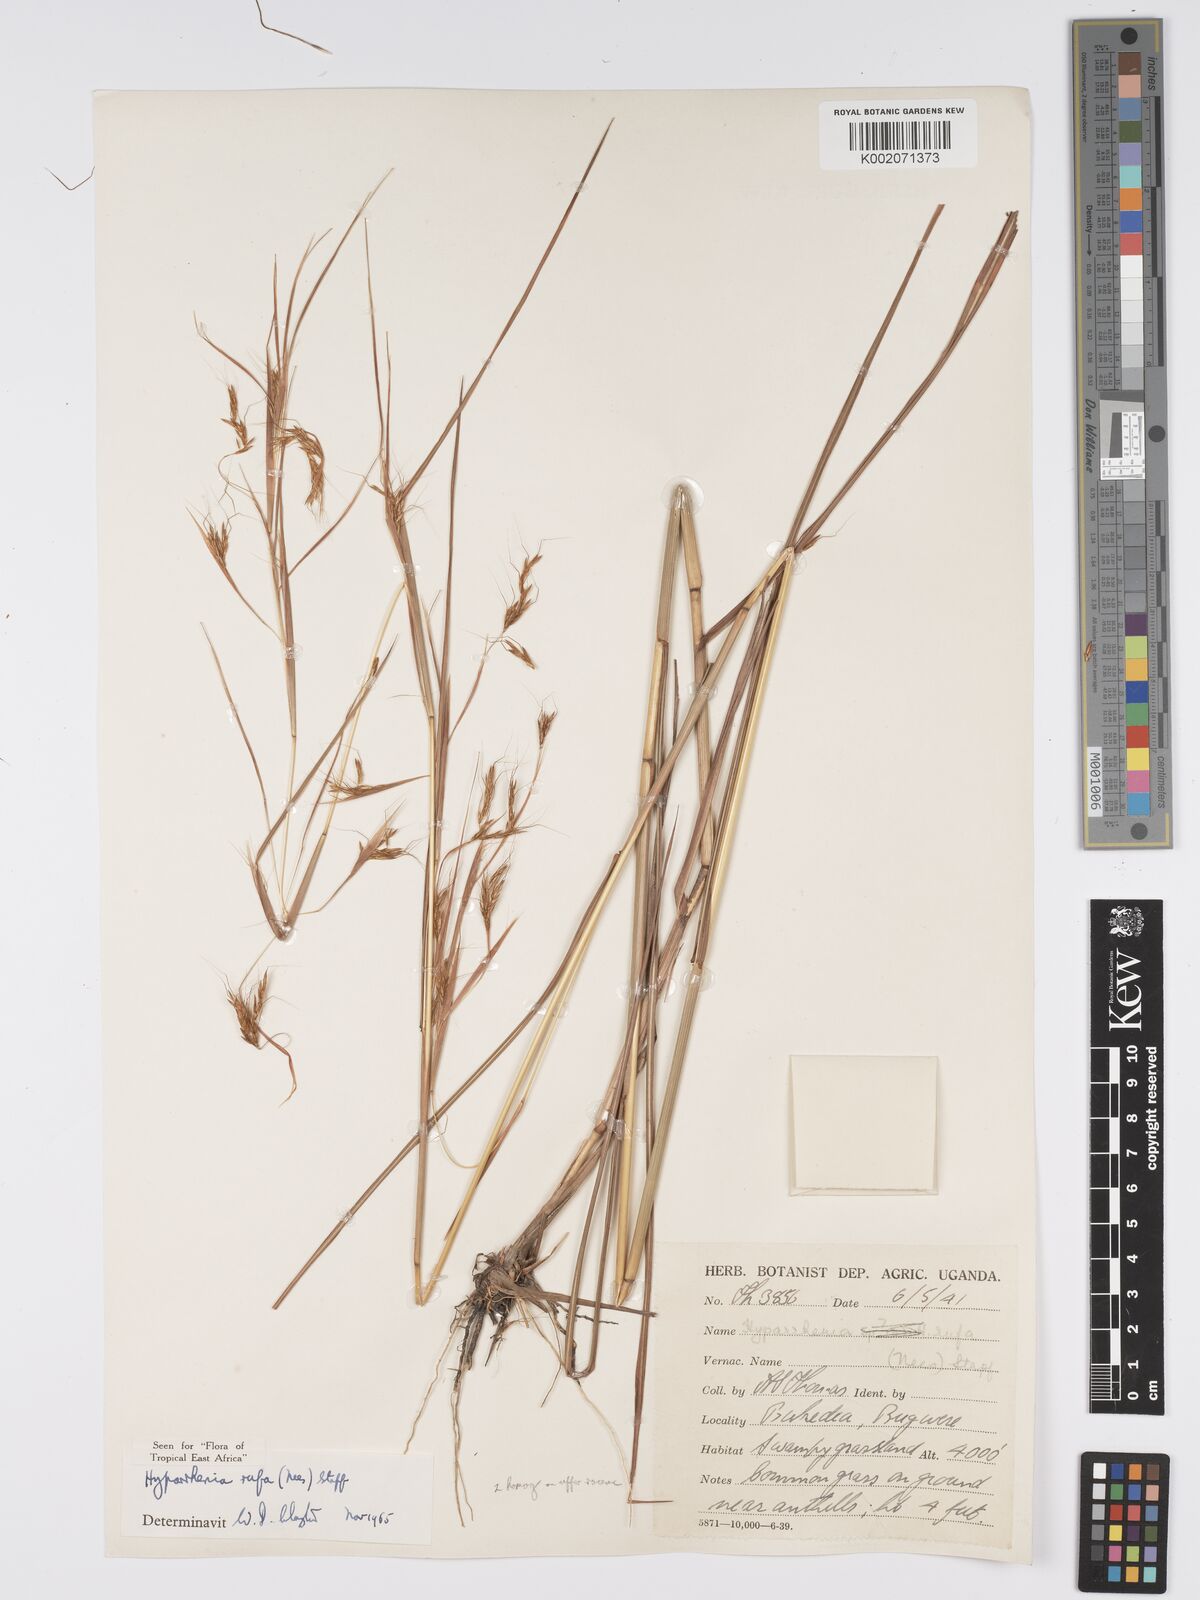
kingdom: Plantae
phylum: Tracheophyta
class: Liliopsida
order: Poales
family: Poaceae
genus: Hyparrhenia
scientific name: Hyparrhenia rufa
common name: Jaraguagrass
